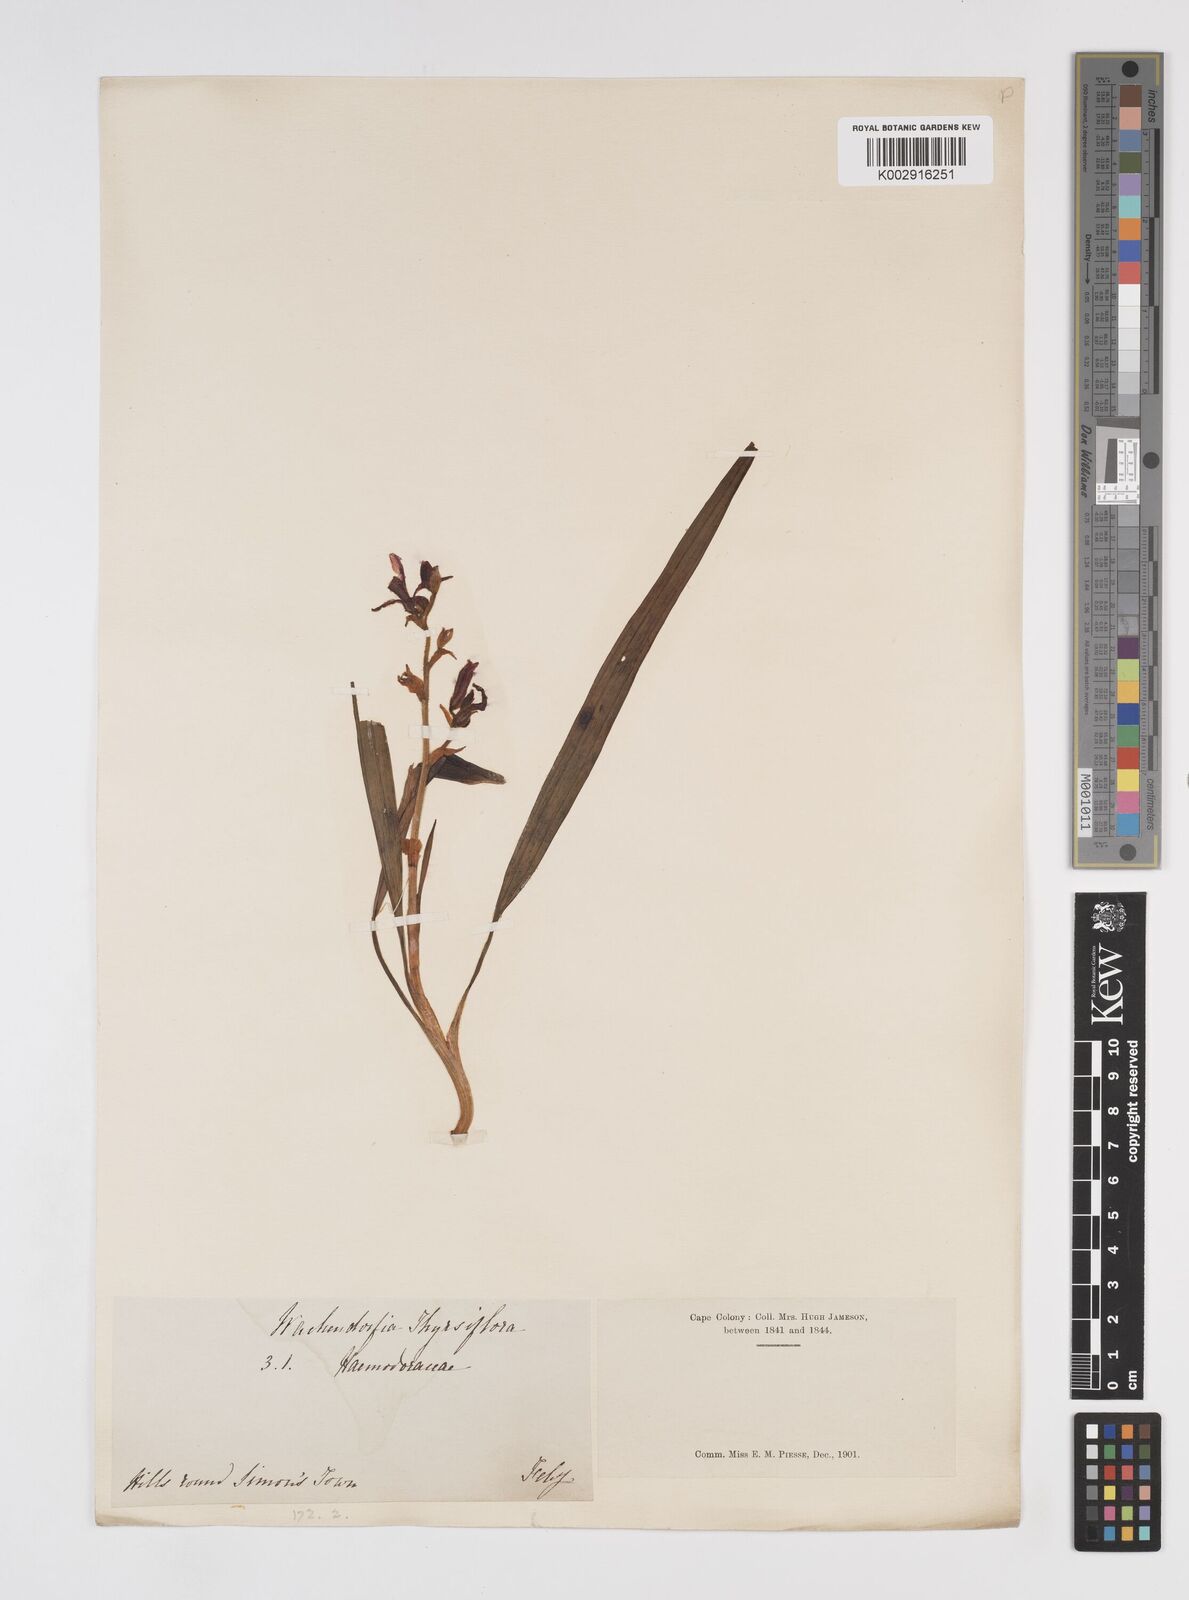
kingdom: Plantae
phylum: Tracheophyta
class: Liliopsida
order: Commelinales
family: Haemodoraceae
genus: Wachendorfia
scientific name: Wachendorfia paniculata
